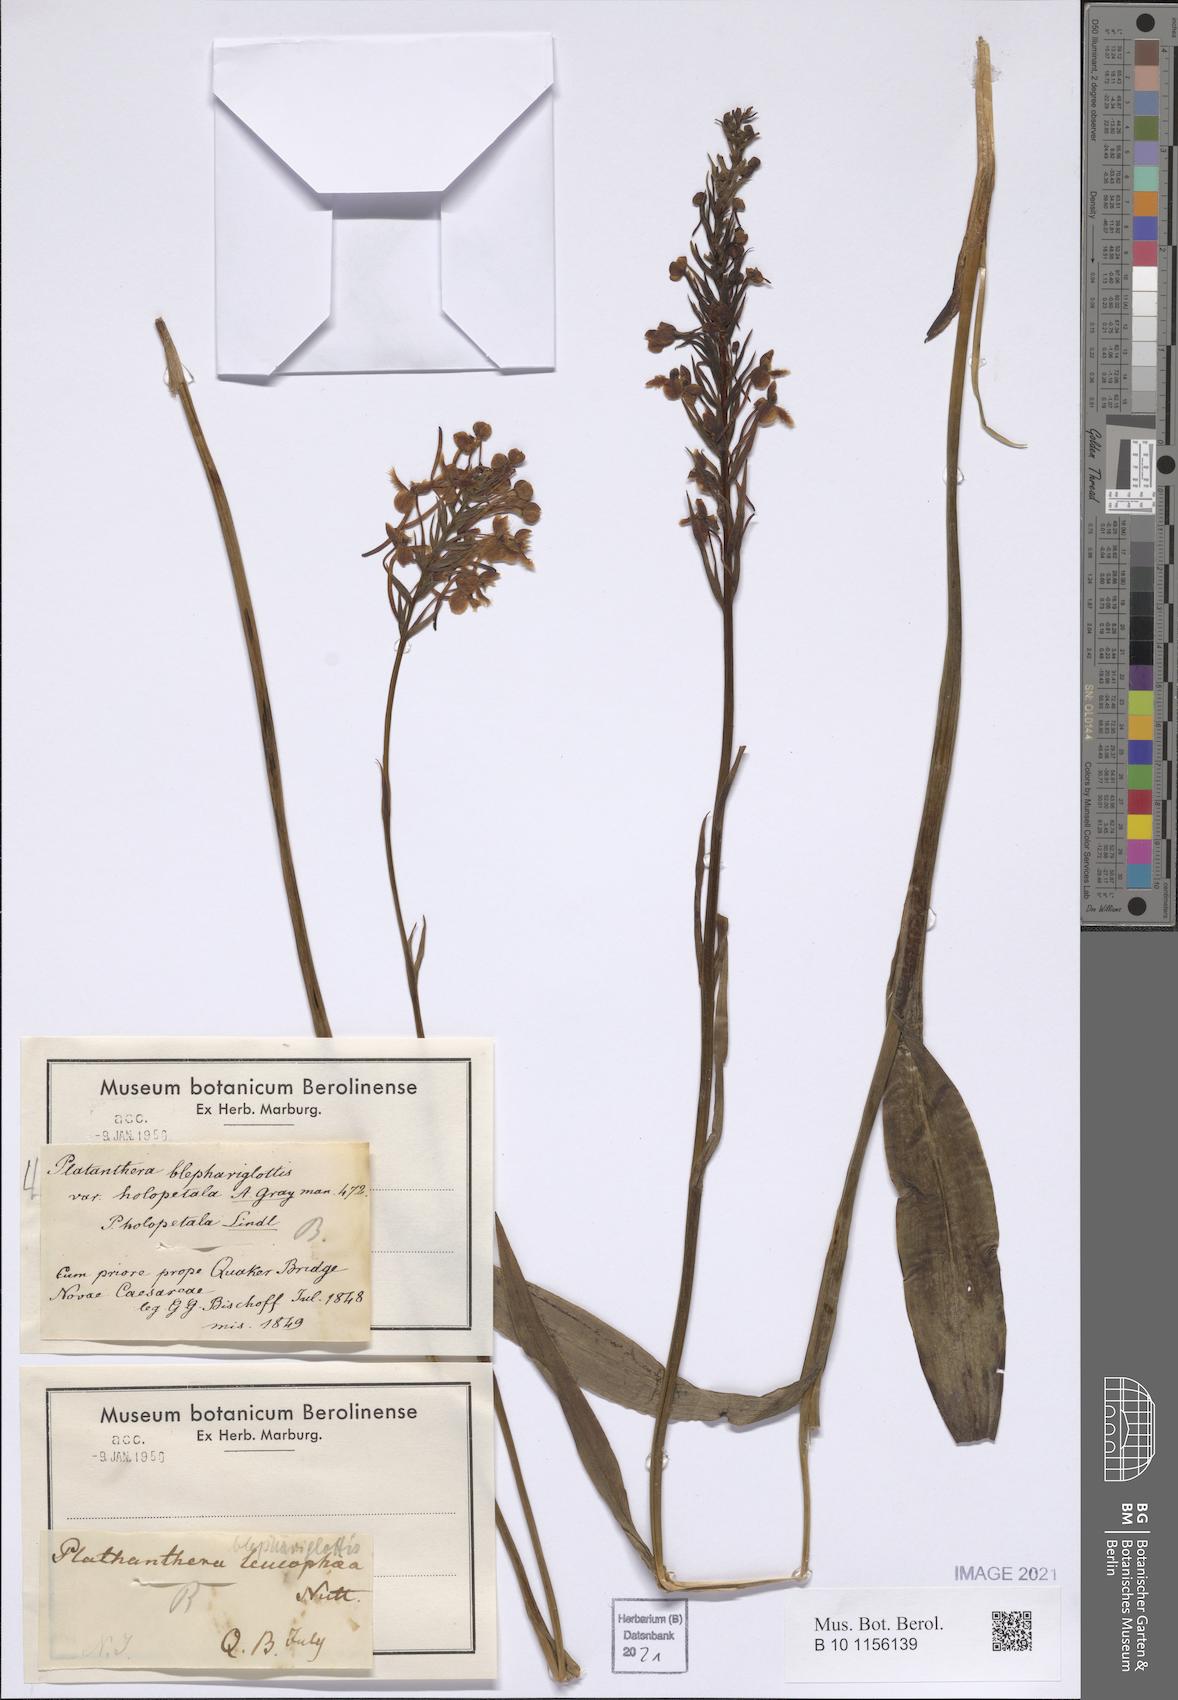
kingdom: Plantae
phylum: Tracheophyta
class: Liliopsida
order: Asparagales
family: Orchidaceae
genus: Platanthera
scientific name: Platanthera blephariglottis
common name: White fringed orchid
